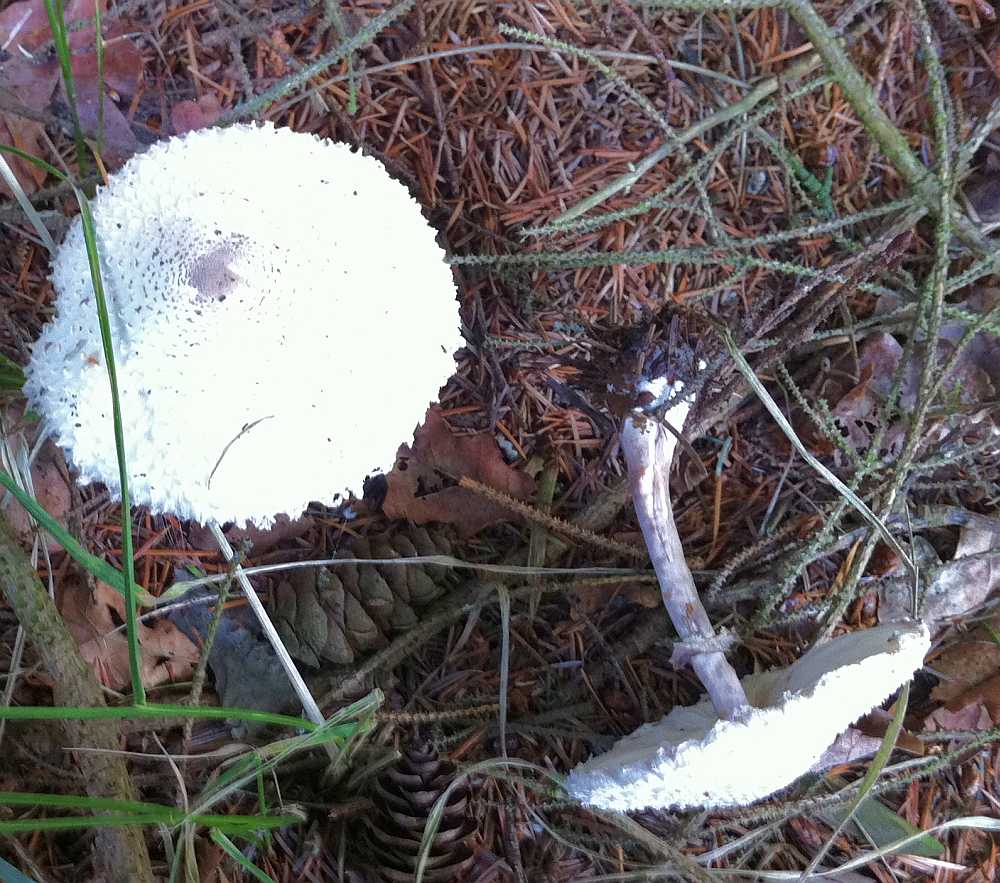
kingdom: Fungi
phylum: Basidiomycota
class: Agaricomycetes
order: Agaricales
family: Agaricaceae
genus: Leucoagaricus
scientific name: Leucoagaricus nympharum
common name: gran-silkehat
